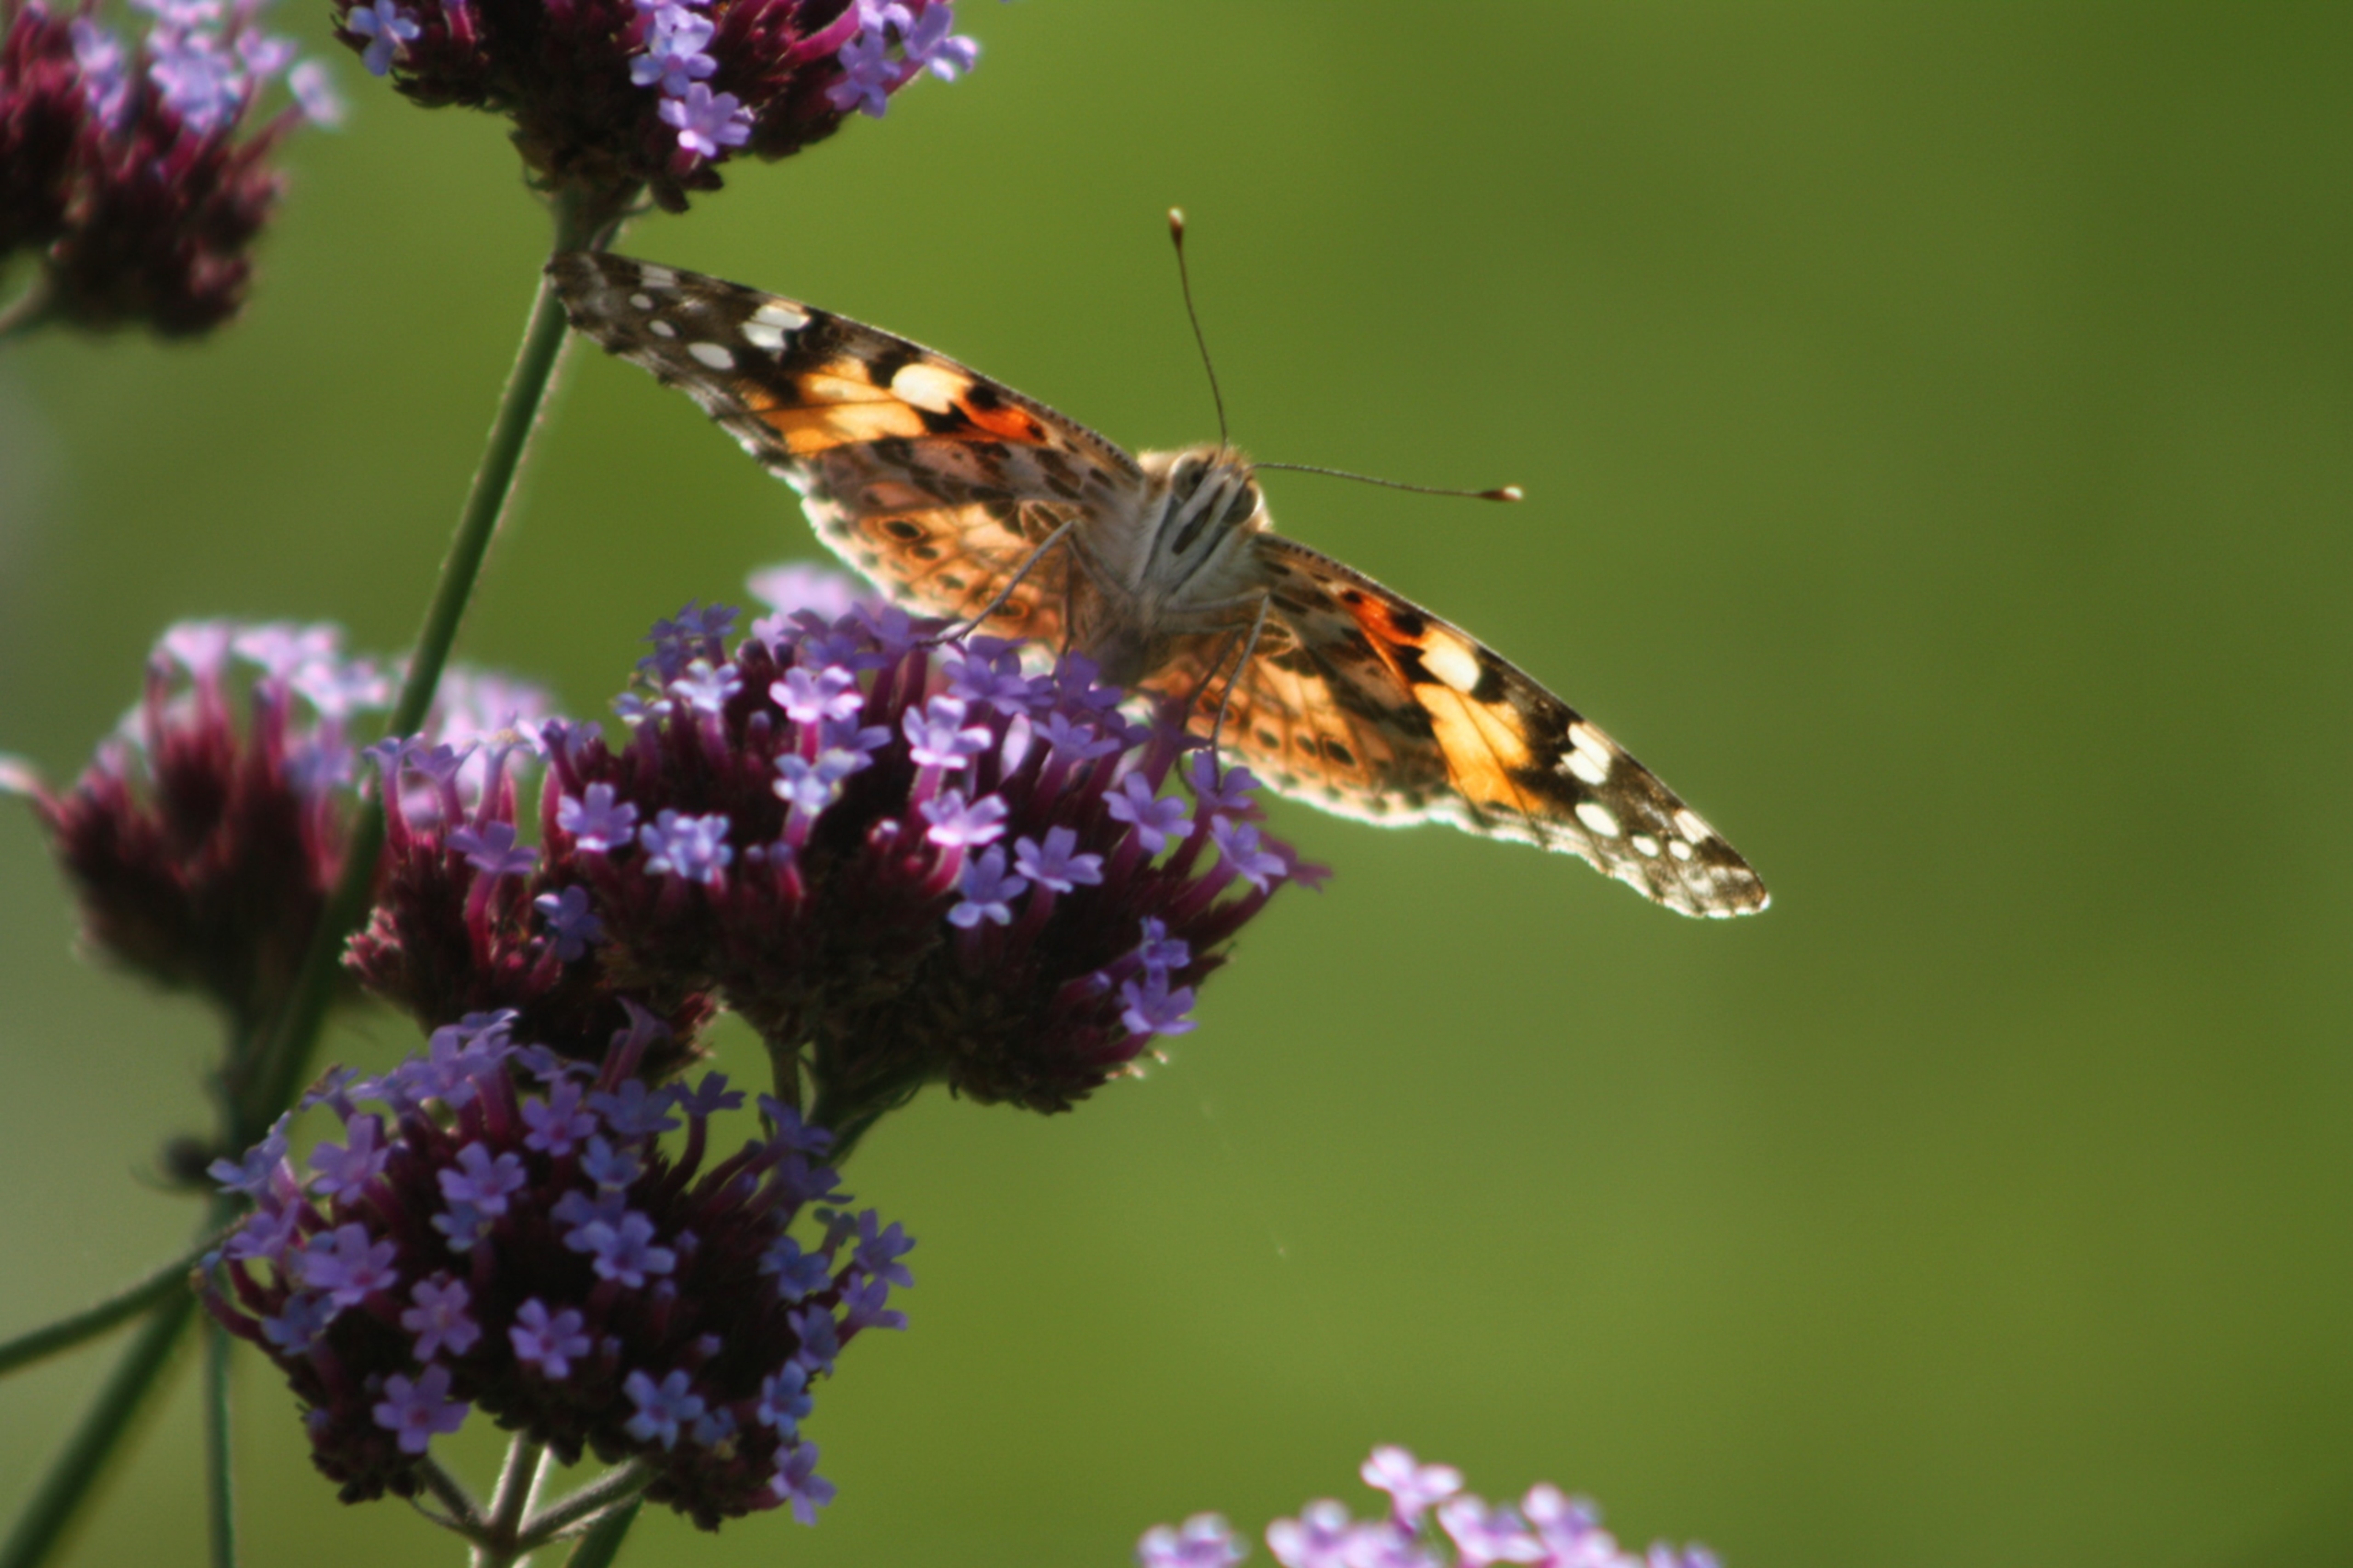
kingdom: Animalia
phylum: Arthropoda
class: Insecta
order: Lepidoptera
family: Nymphalidae
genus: Vanessa
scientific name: Vanessa cardui
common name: Tidselsommerfugl
